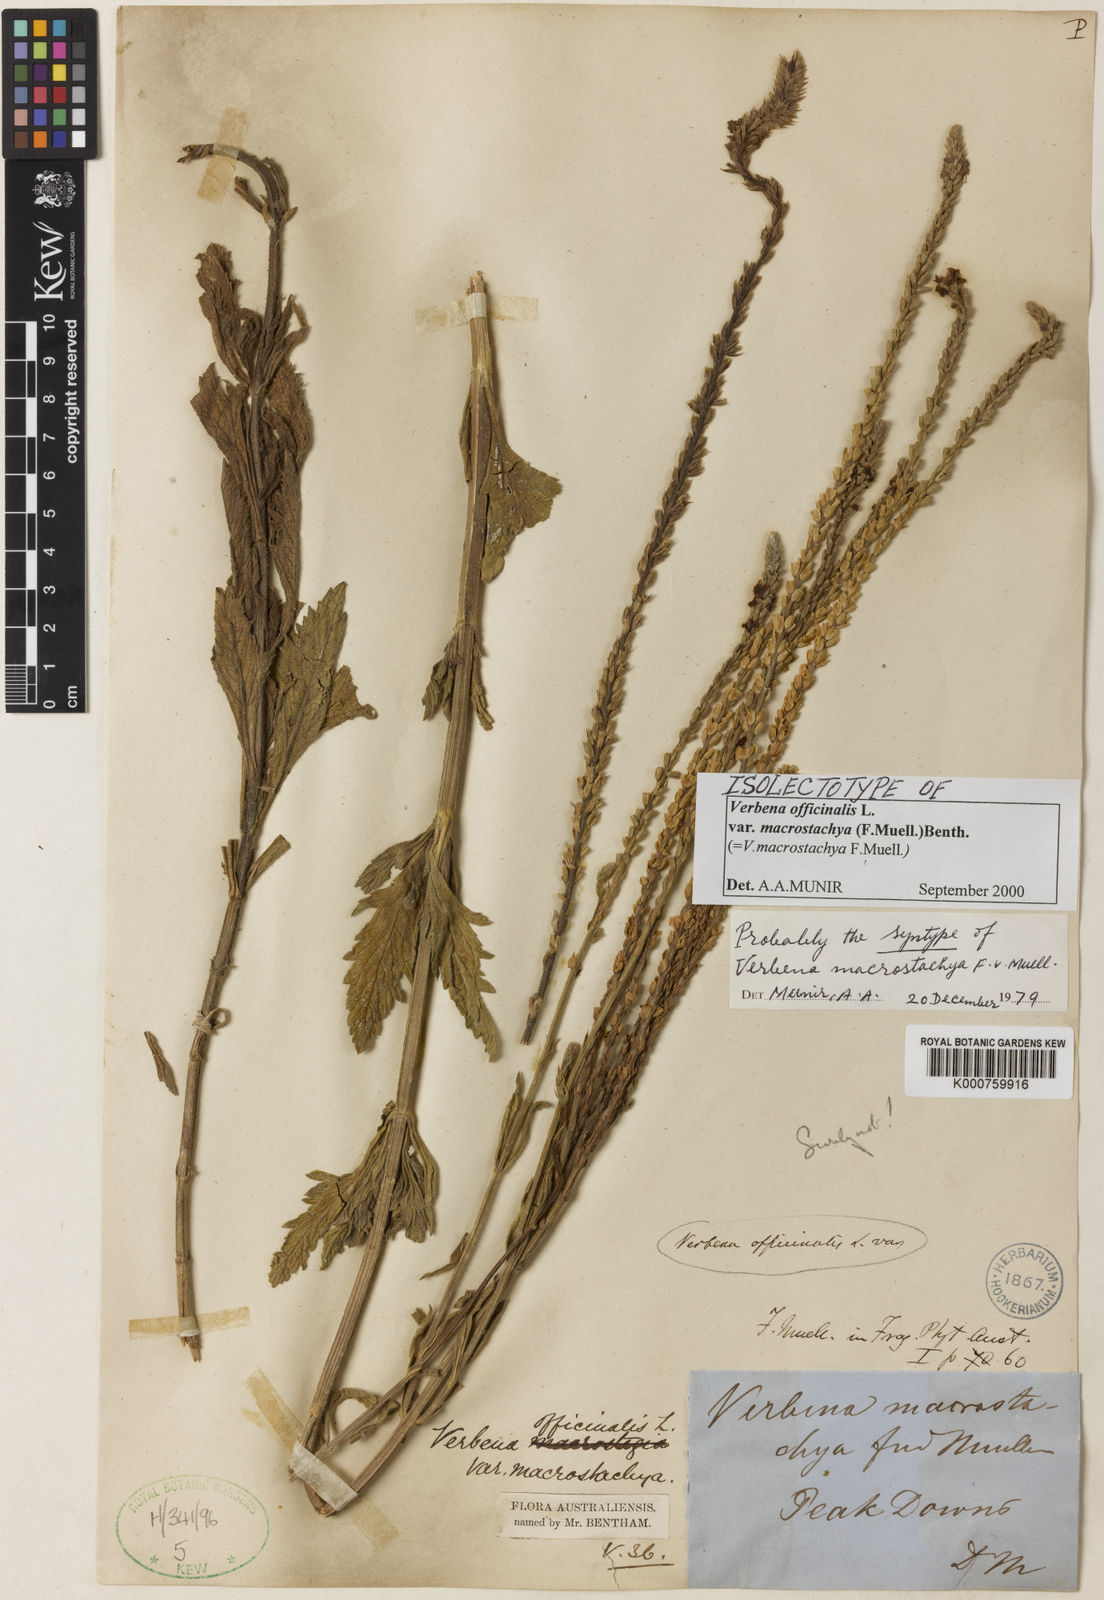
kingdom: Plantae
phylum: Tracheophyta
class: Magnoliopsida
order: Lamiales
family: Verbenaceae
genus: Verbena
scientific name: Verbena officinalis
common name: Vervain
